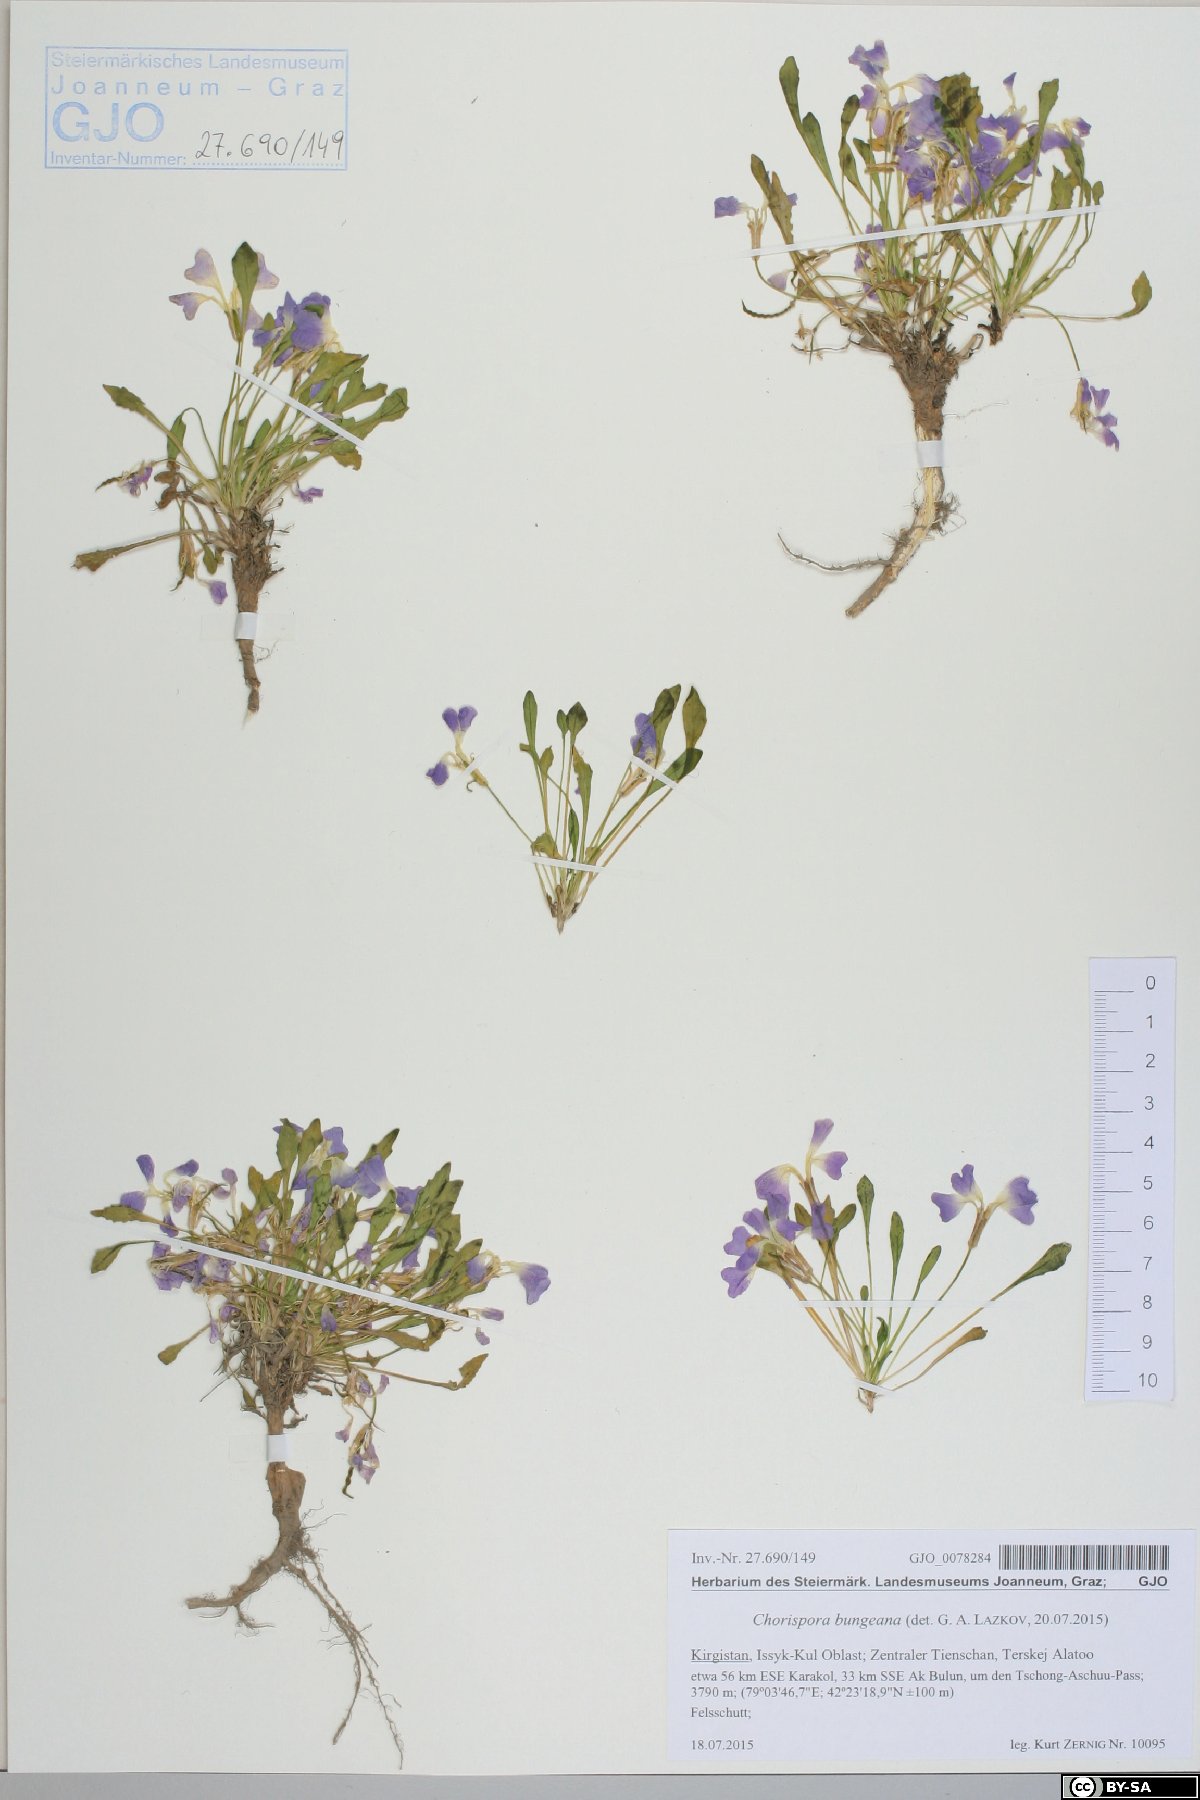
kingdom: Plantae
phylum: Tracheophyta
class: Magnoliopsida
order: Brassicales
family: Brassicaceae
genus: Chorispora
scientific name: Chorispora bungeana
